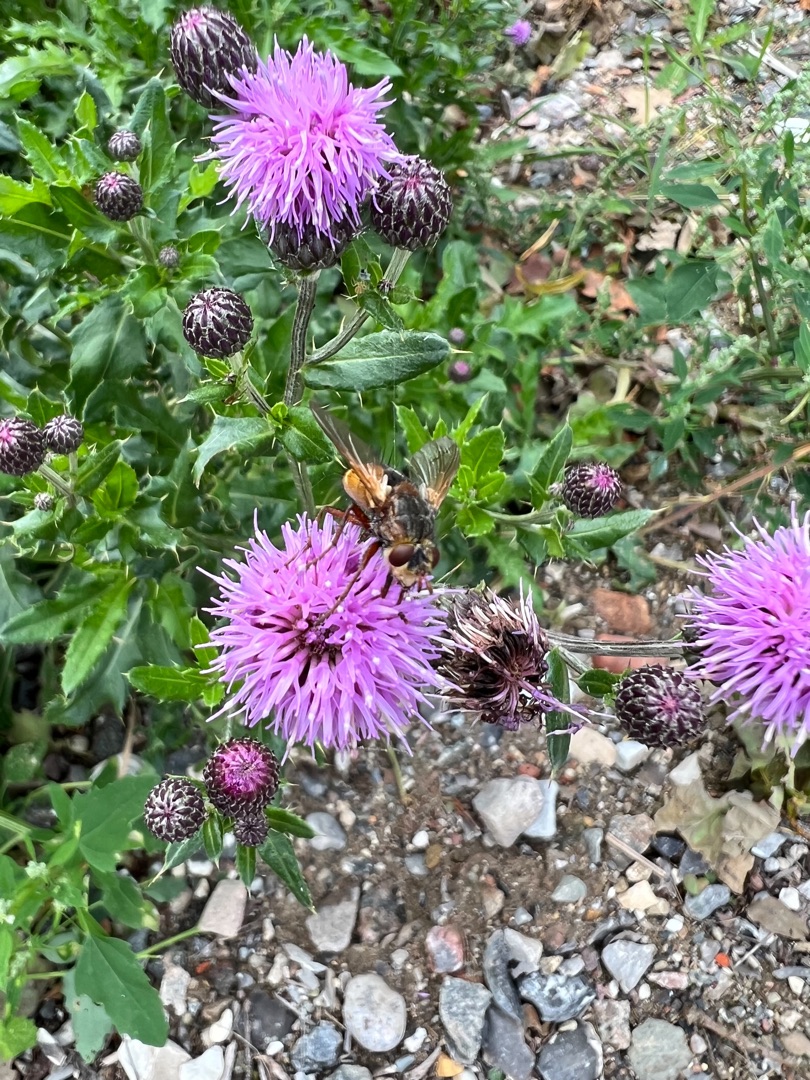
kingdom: Animalia
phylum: Arthropoda
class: Insecta
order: Diptera
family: Tachinidae
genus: Tachina
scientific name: Tachina fera
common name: Mellemfluen oskar
